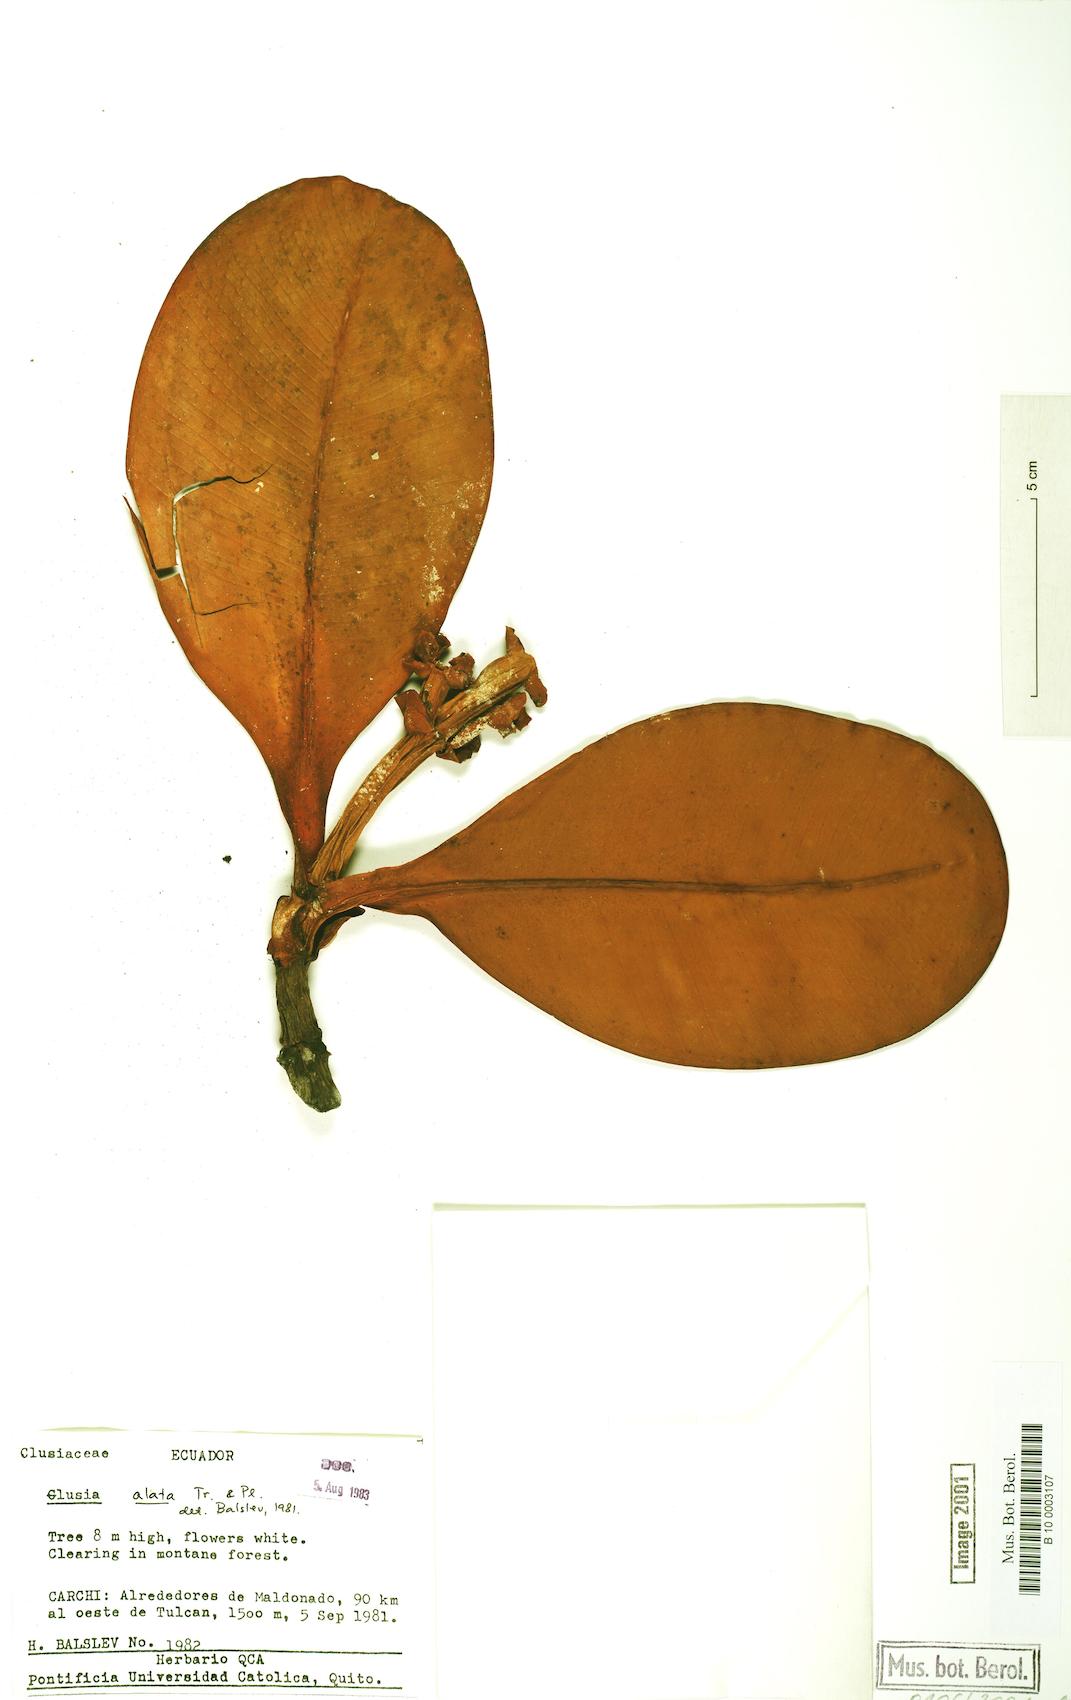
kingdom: Plantae
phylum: Tracheophyta
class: Magnoliopsida
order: Malpighiales
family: Clusiaceae
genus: Clusia
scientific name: Clusia alata
